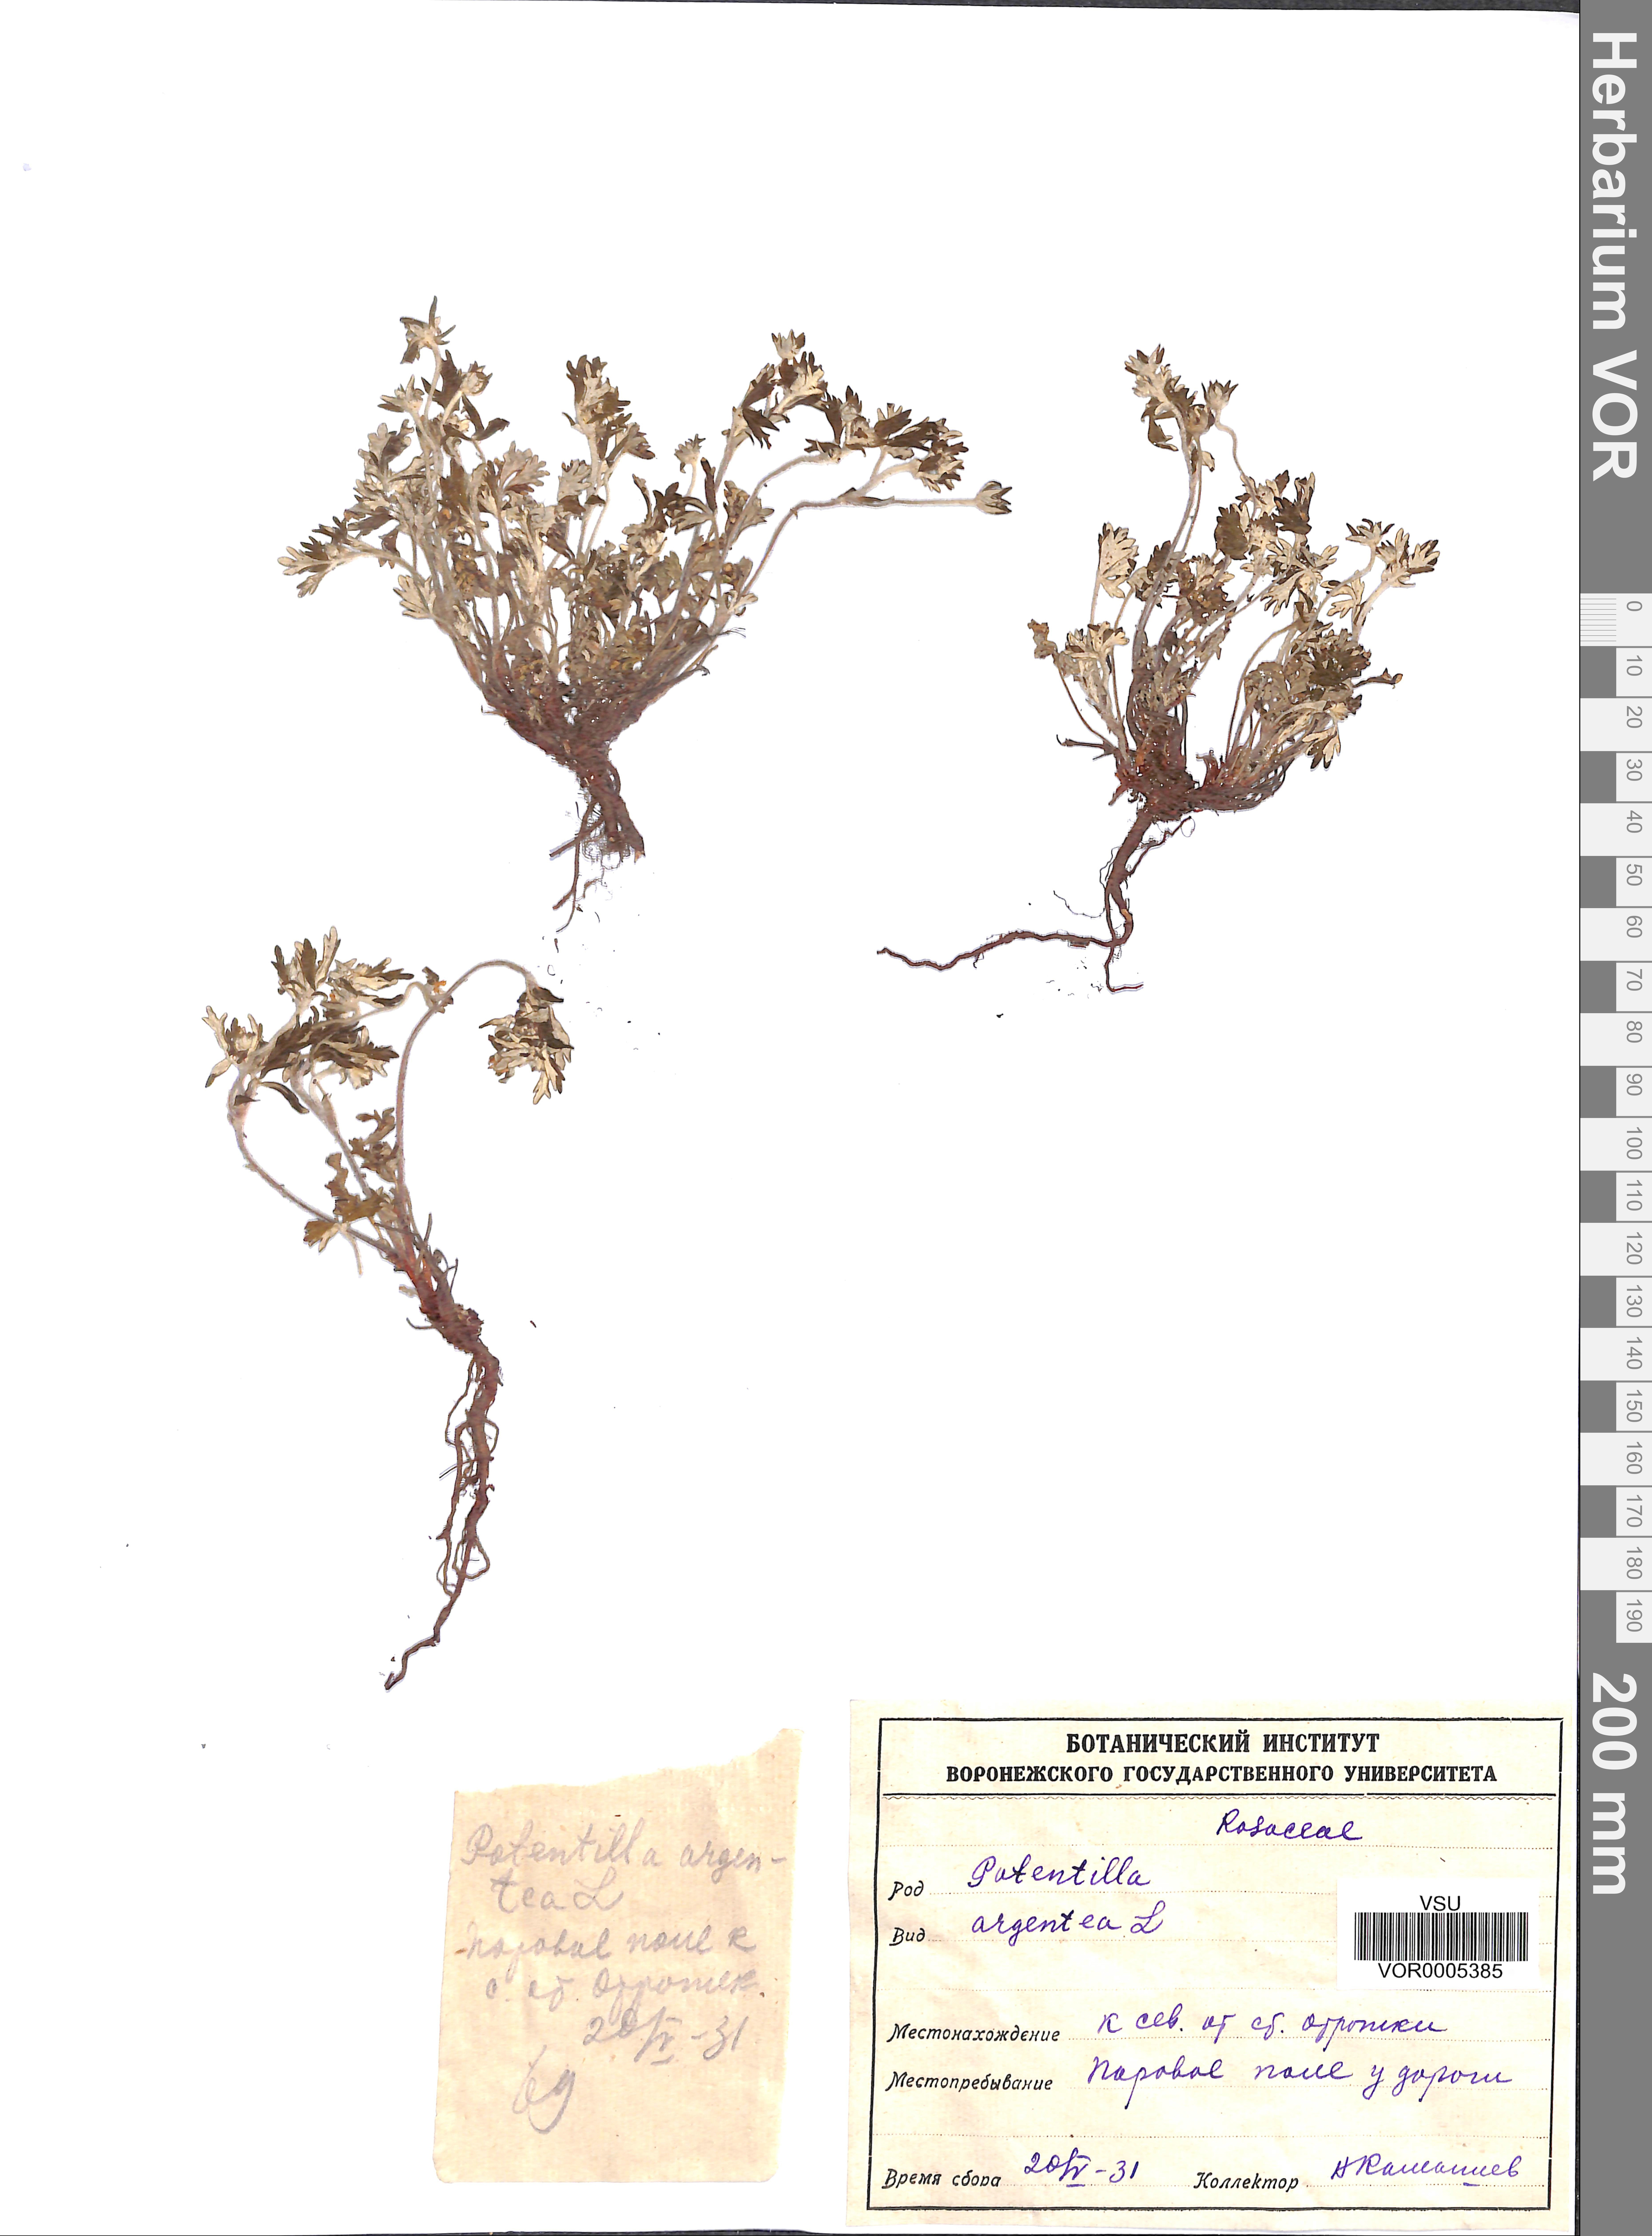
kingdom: Plantae
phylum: Tracheophyta
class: Magnoliopsida
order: Rosales
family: Rosaceae
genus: Potentilla
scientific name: Potentilla argentea
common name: Hoary cinquefoil
